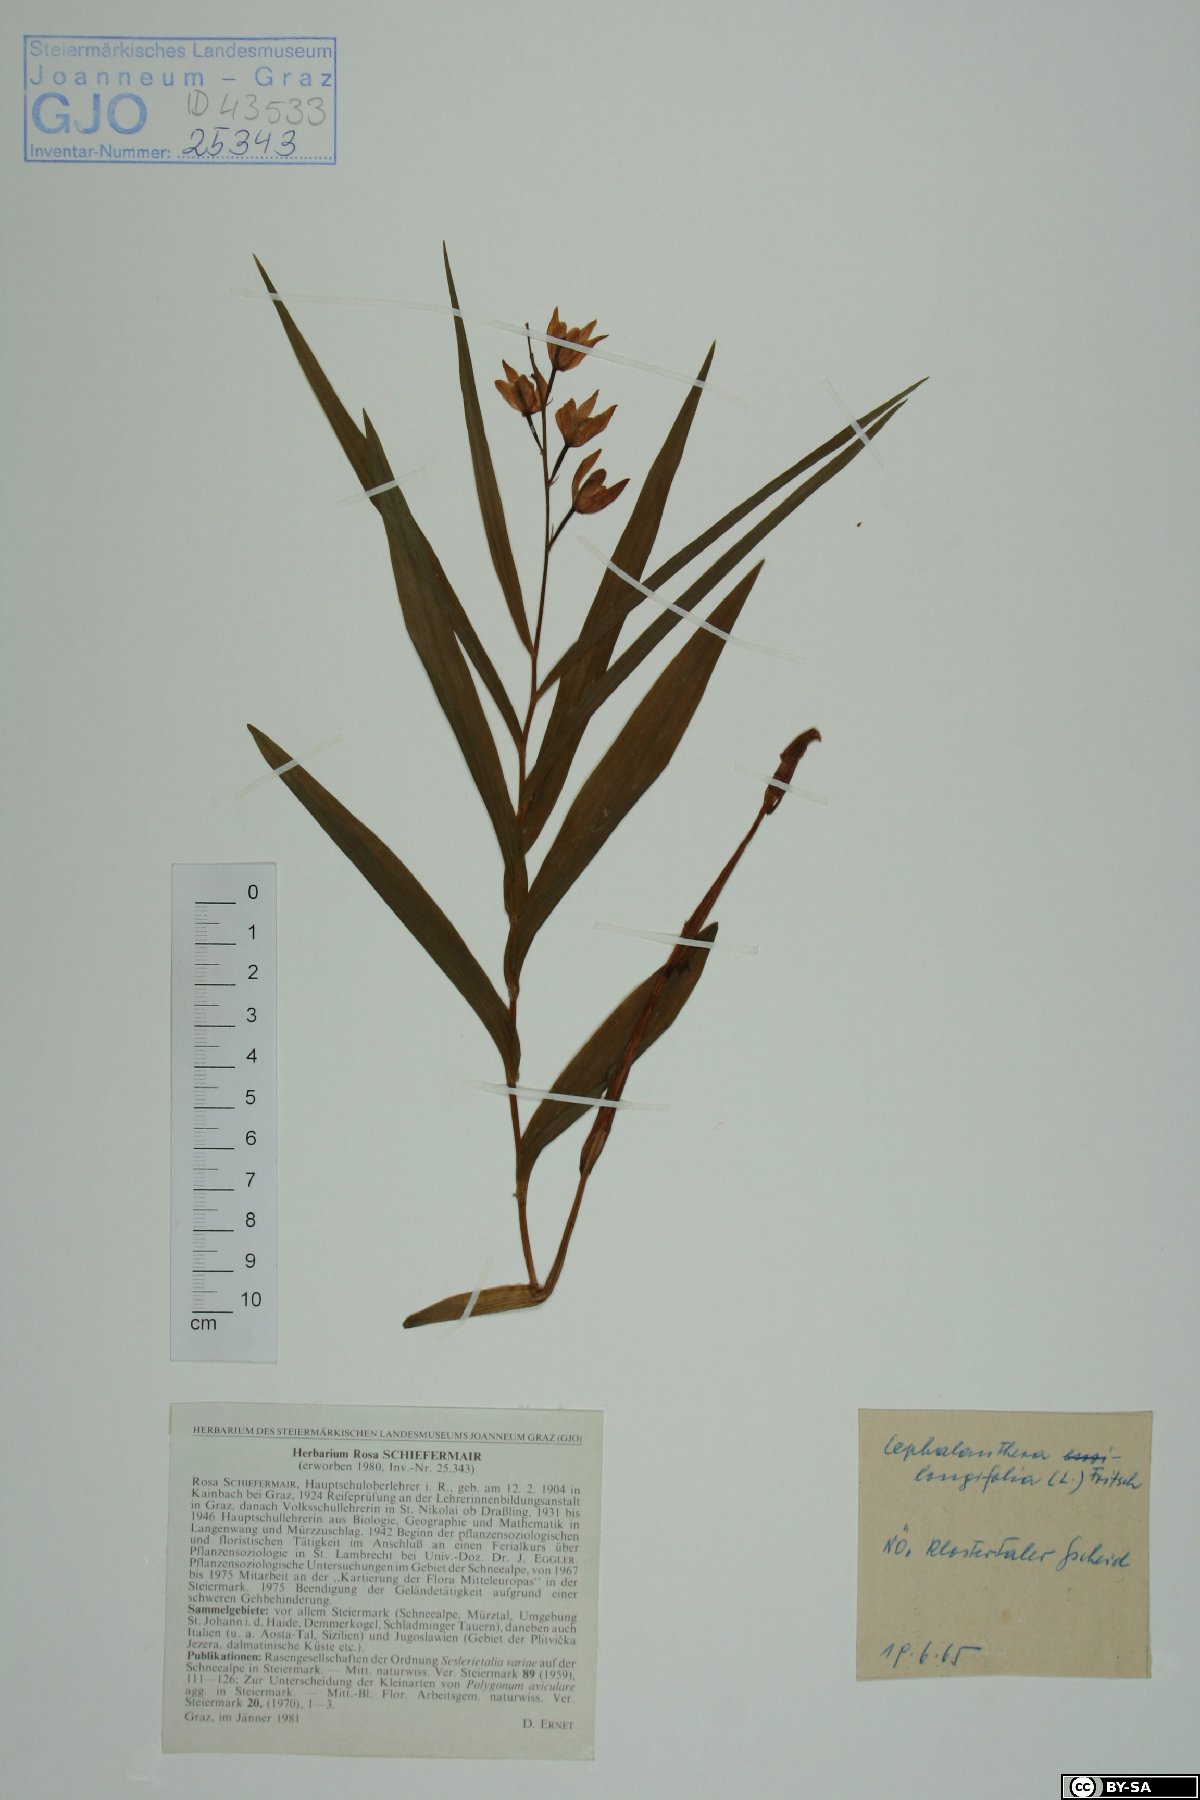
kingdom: Plantae
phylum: Tracheophyta
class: Liliopsida
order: Asparagales
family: Orchidaceae
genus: Cephalanthera
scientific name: Cephalanthera longifolia
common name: Narrow-leaved helleborine
